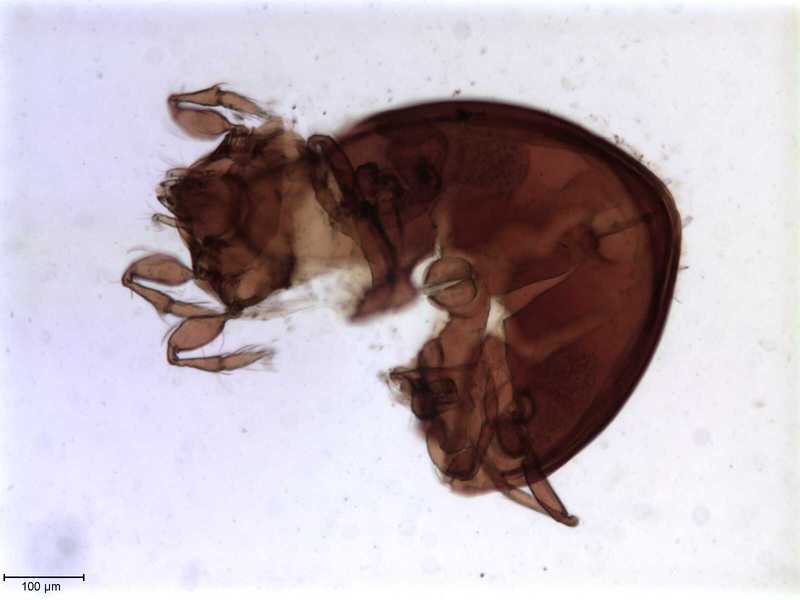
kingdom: Animalia
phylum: Arthropoda
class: Arachnida
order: Sarcoptiformes
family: Oribatulidae
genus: Oribatula
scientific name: Oribatula
